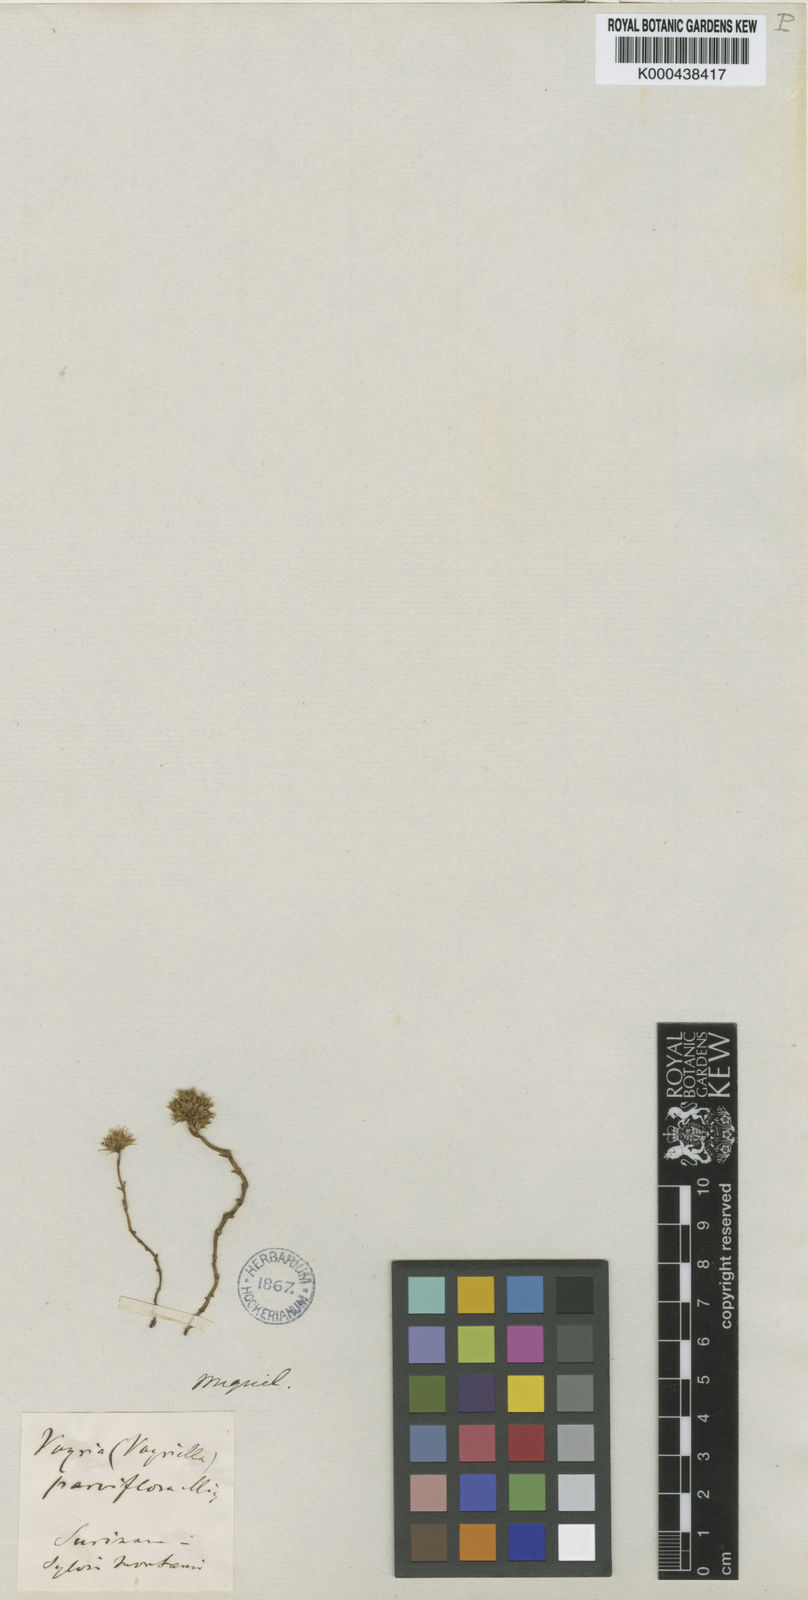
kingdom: Plantae
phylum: Tracheophyta
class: Magnoliopsida
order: Gentianales
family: Gentianaceae
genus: Voyriella
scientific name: Voyriella parviflora
